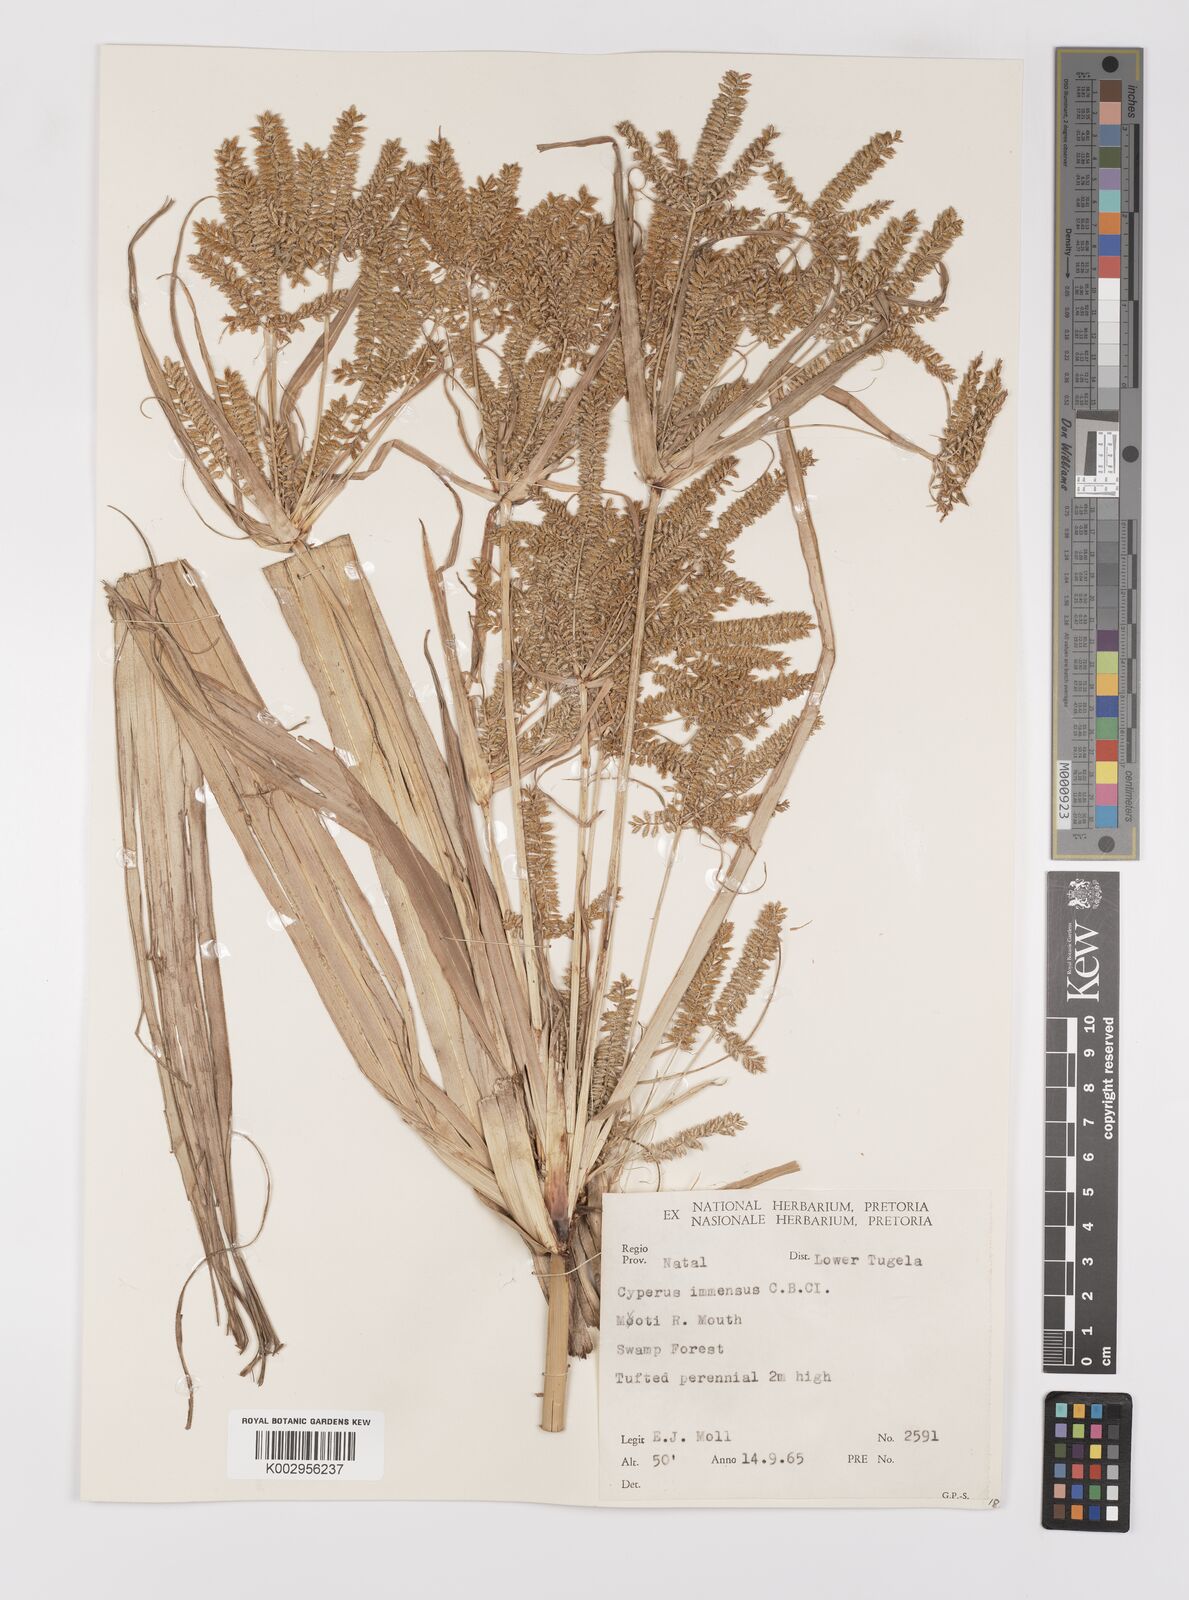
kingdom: Plantae
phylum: Tracheophyta
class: Liliopsida
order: Poales
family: Cyperaceae
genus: Cyperus
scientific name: Cyperus dives
